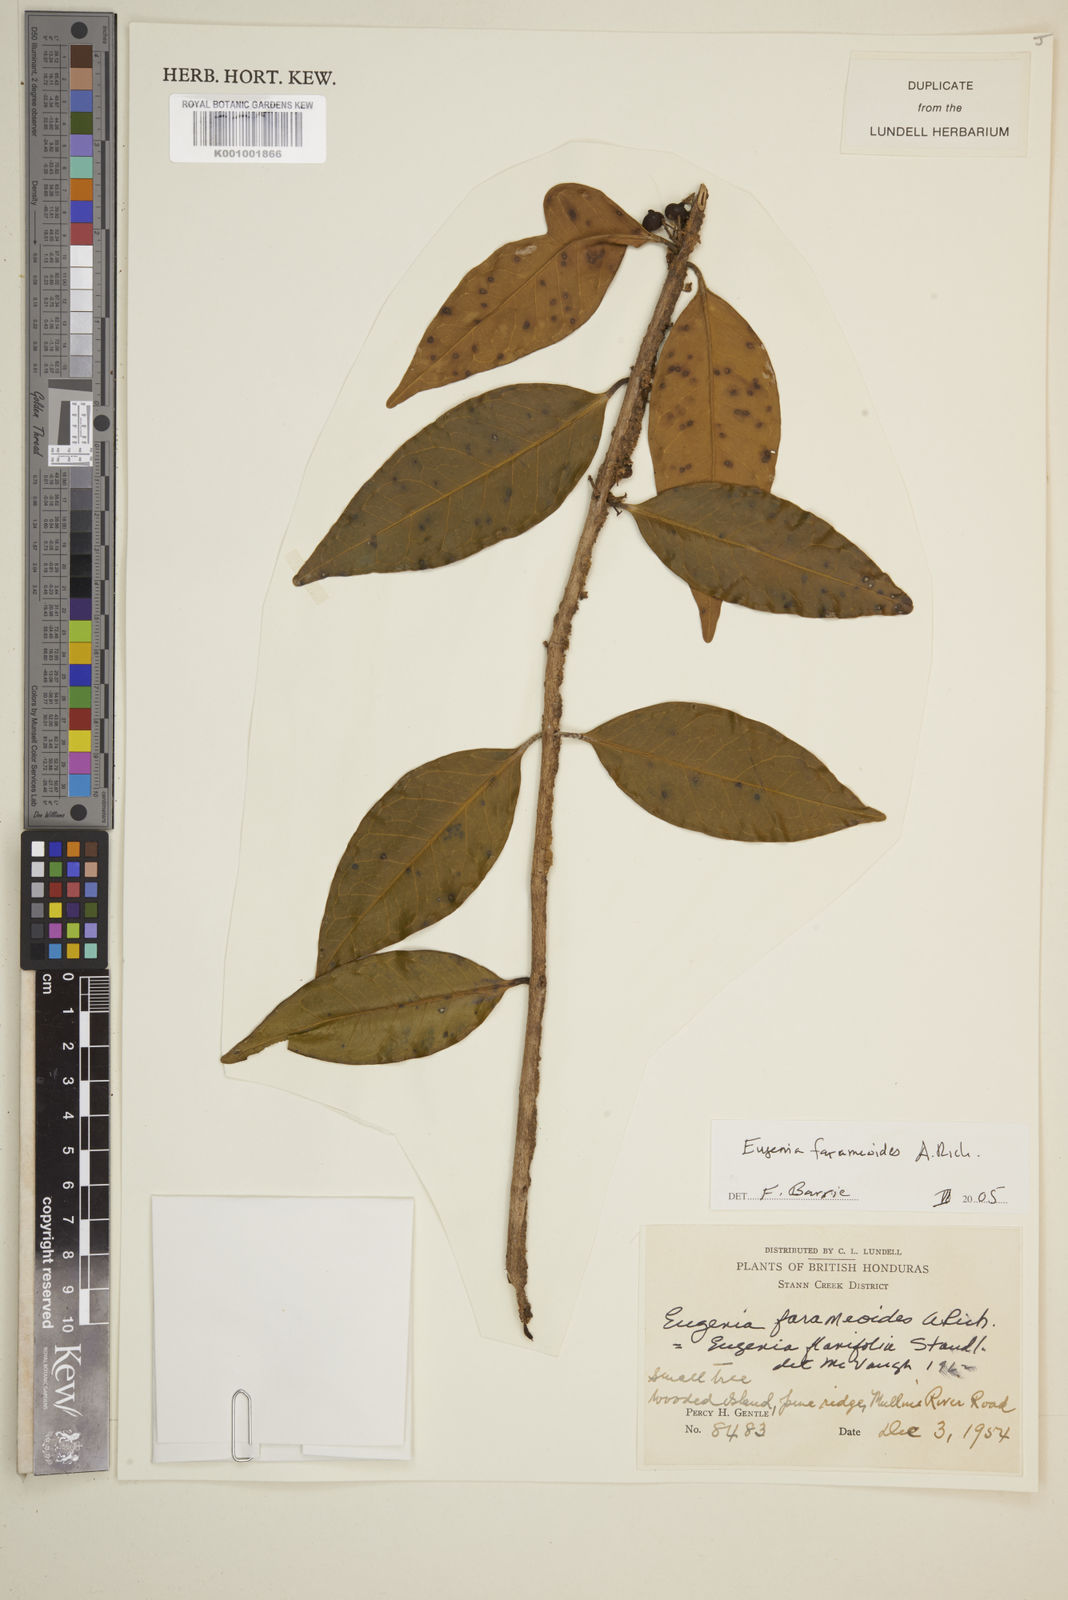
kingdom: Plantae
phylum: Tracheophyta
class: Magnoliopsida
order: Myrtales
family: Myrtaceae
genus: Eugenia
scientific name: Eugenia farameoides
